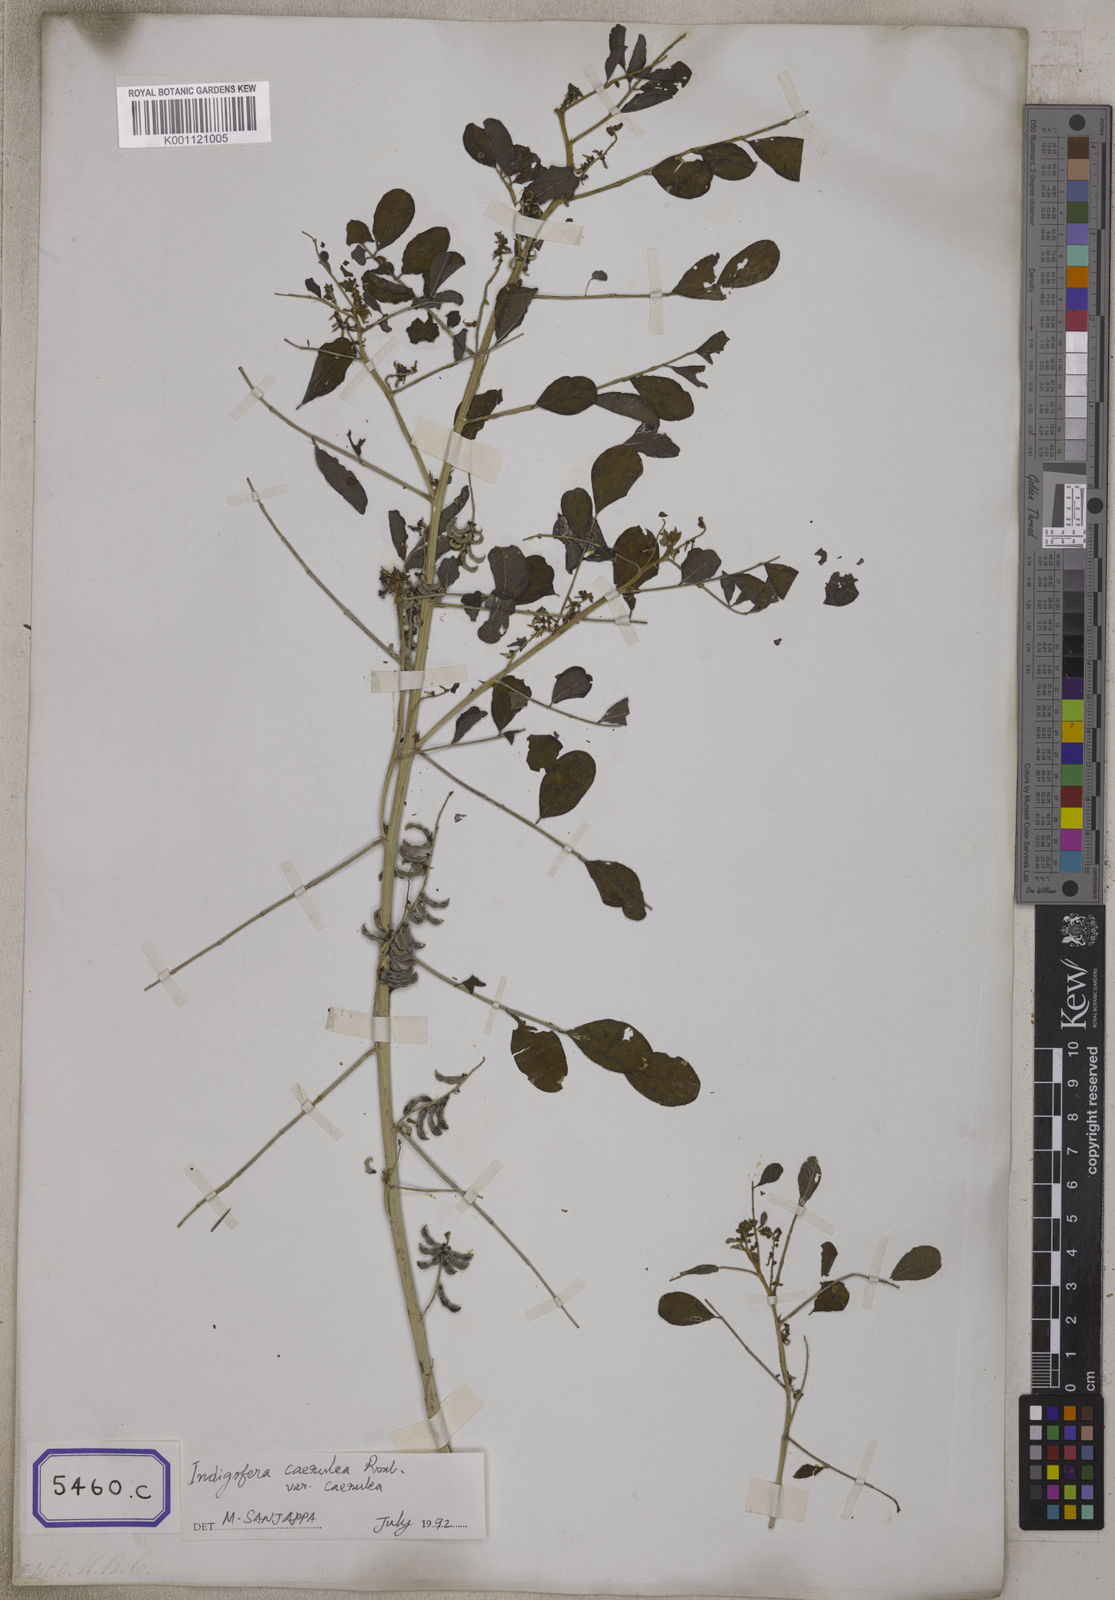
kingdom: Plantae
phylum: Tracheophyta
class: Magnoliopsida
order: Fabales
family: Fabaceae
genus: Indigofera
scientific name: Indigofera
